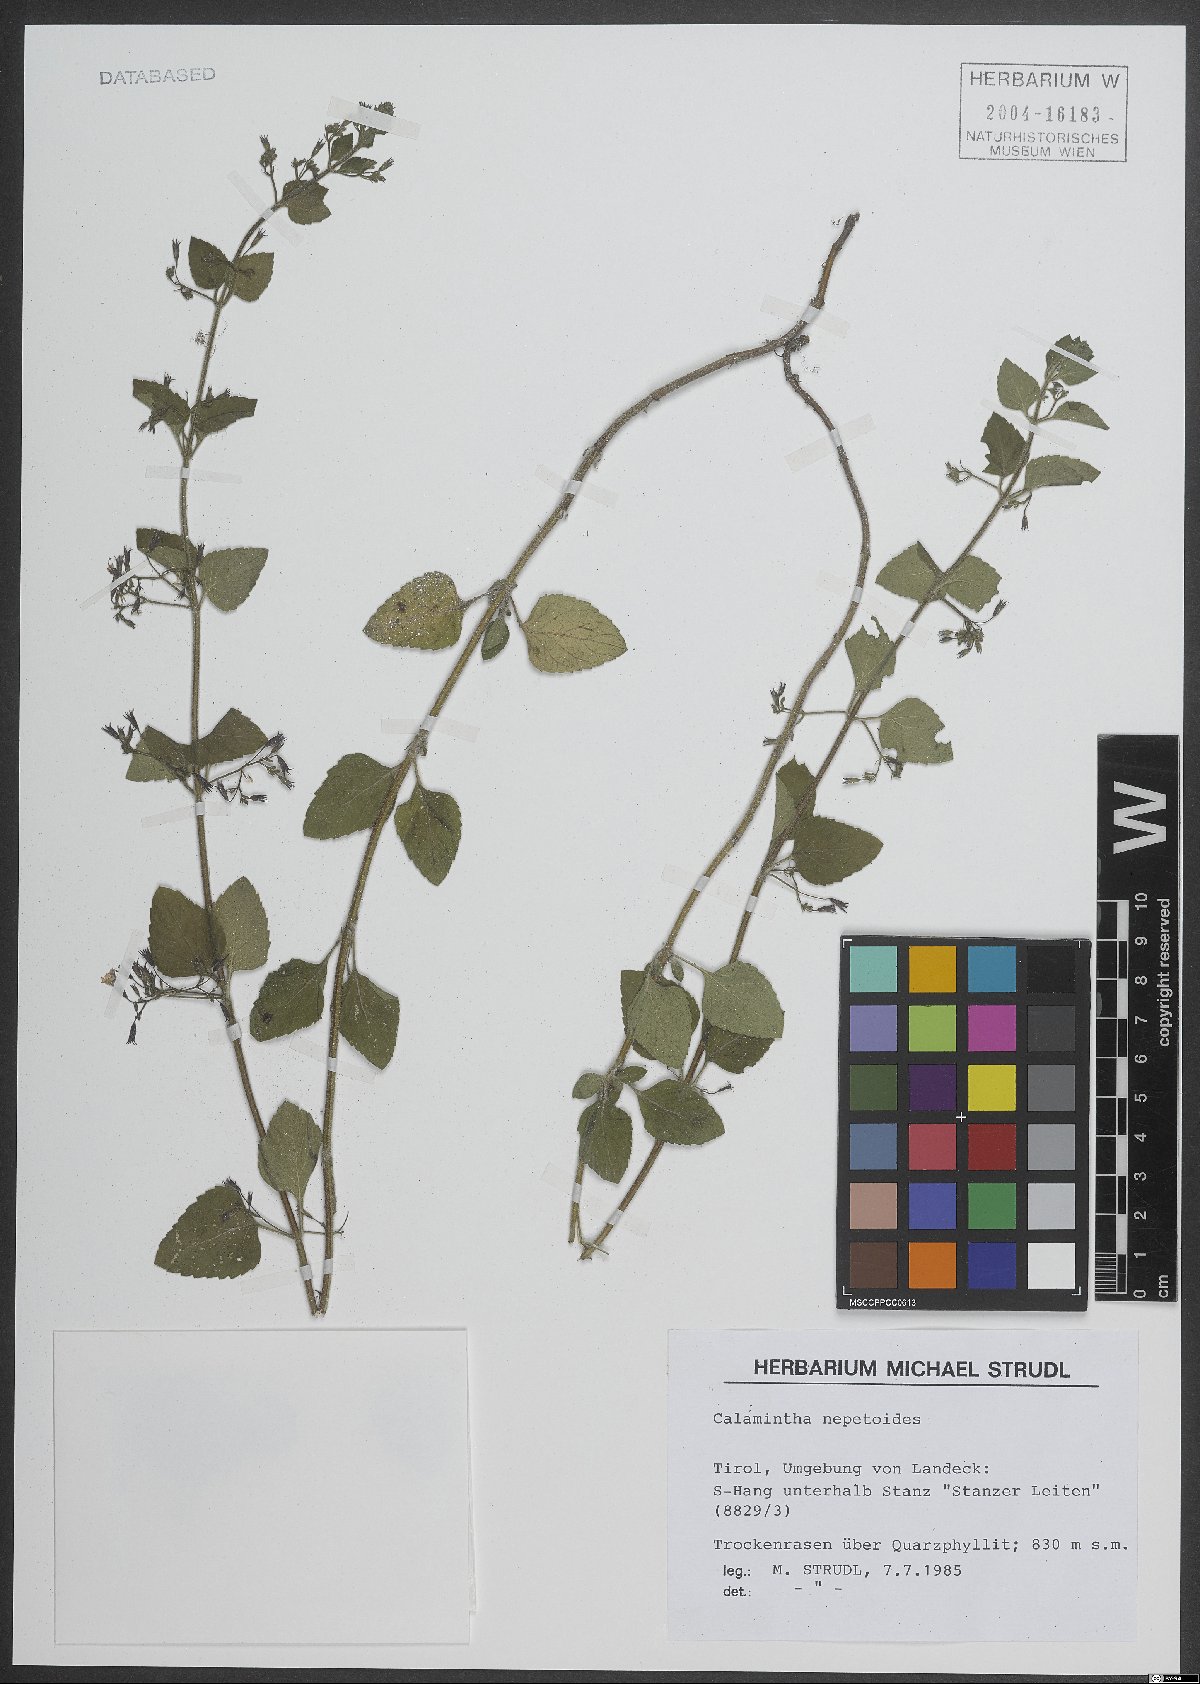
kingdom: Plantae
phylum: Tracheophyta
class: Magnoliopsida
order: Lamiales
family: Lamiaceae
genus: Clinopodium
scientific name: Clinopodium nepeta
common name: Lesser calamint
